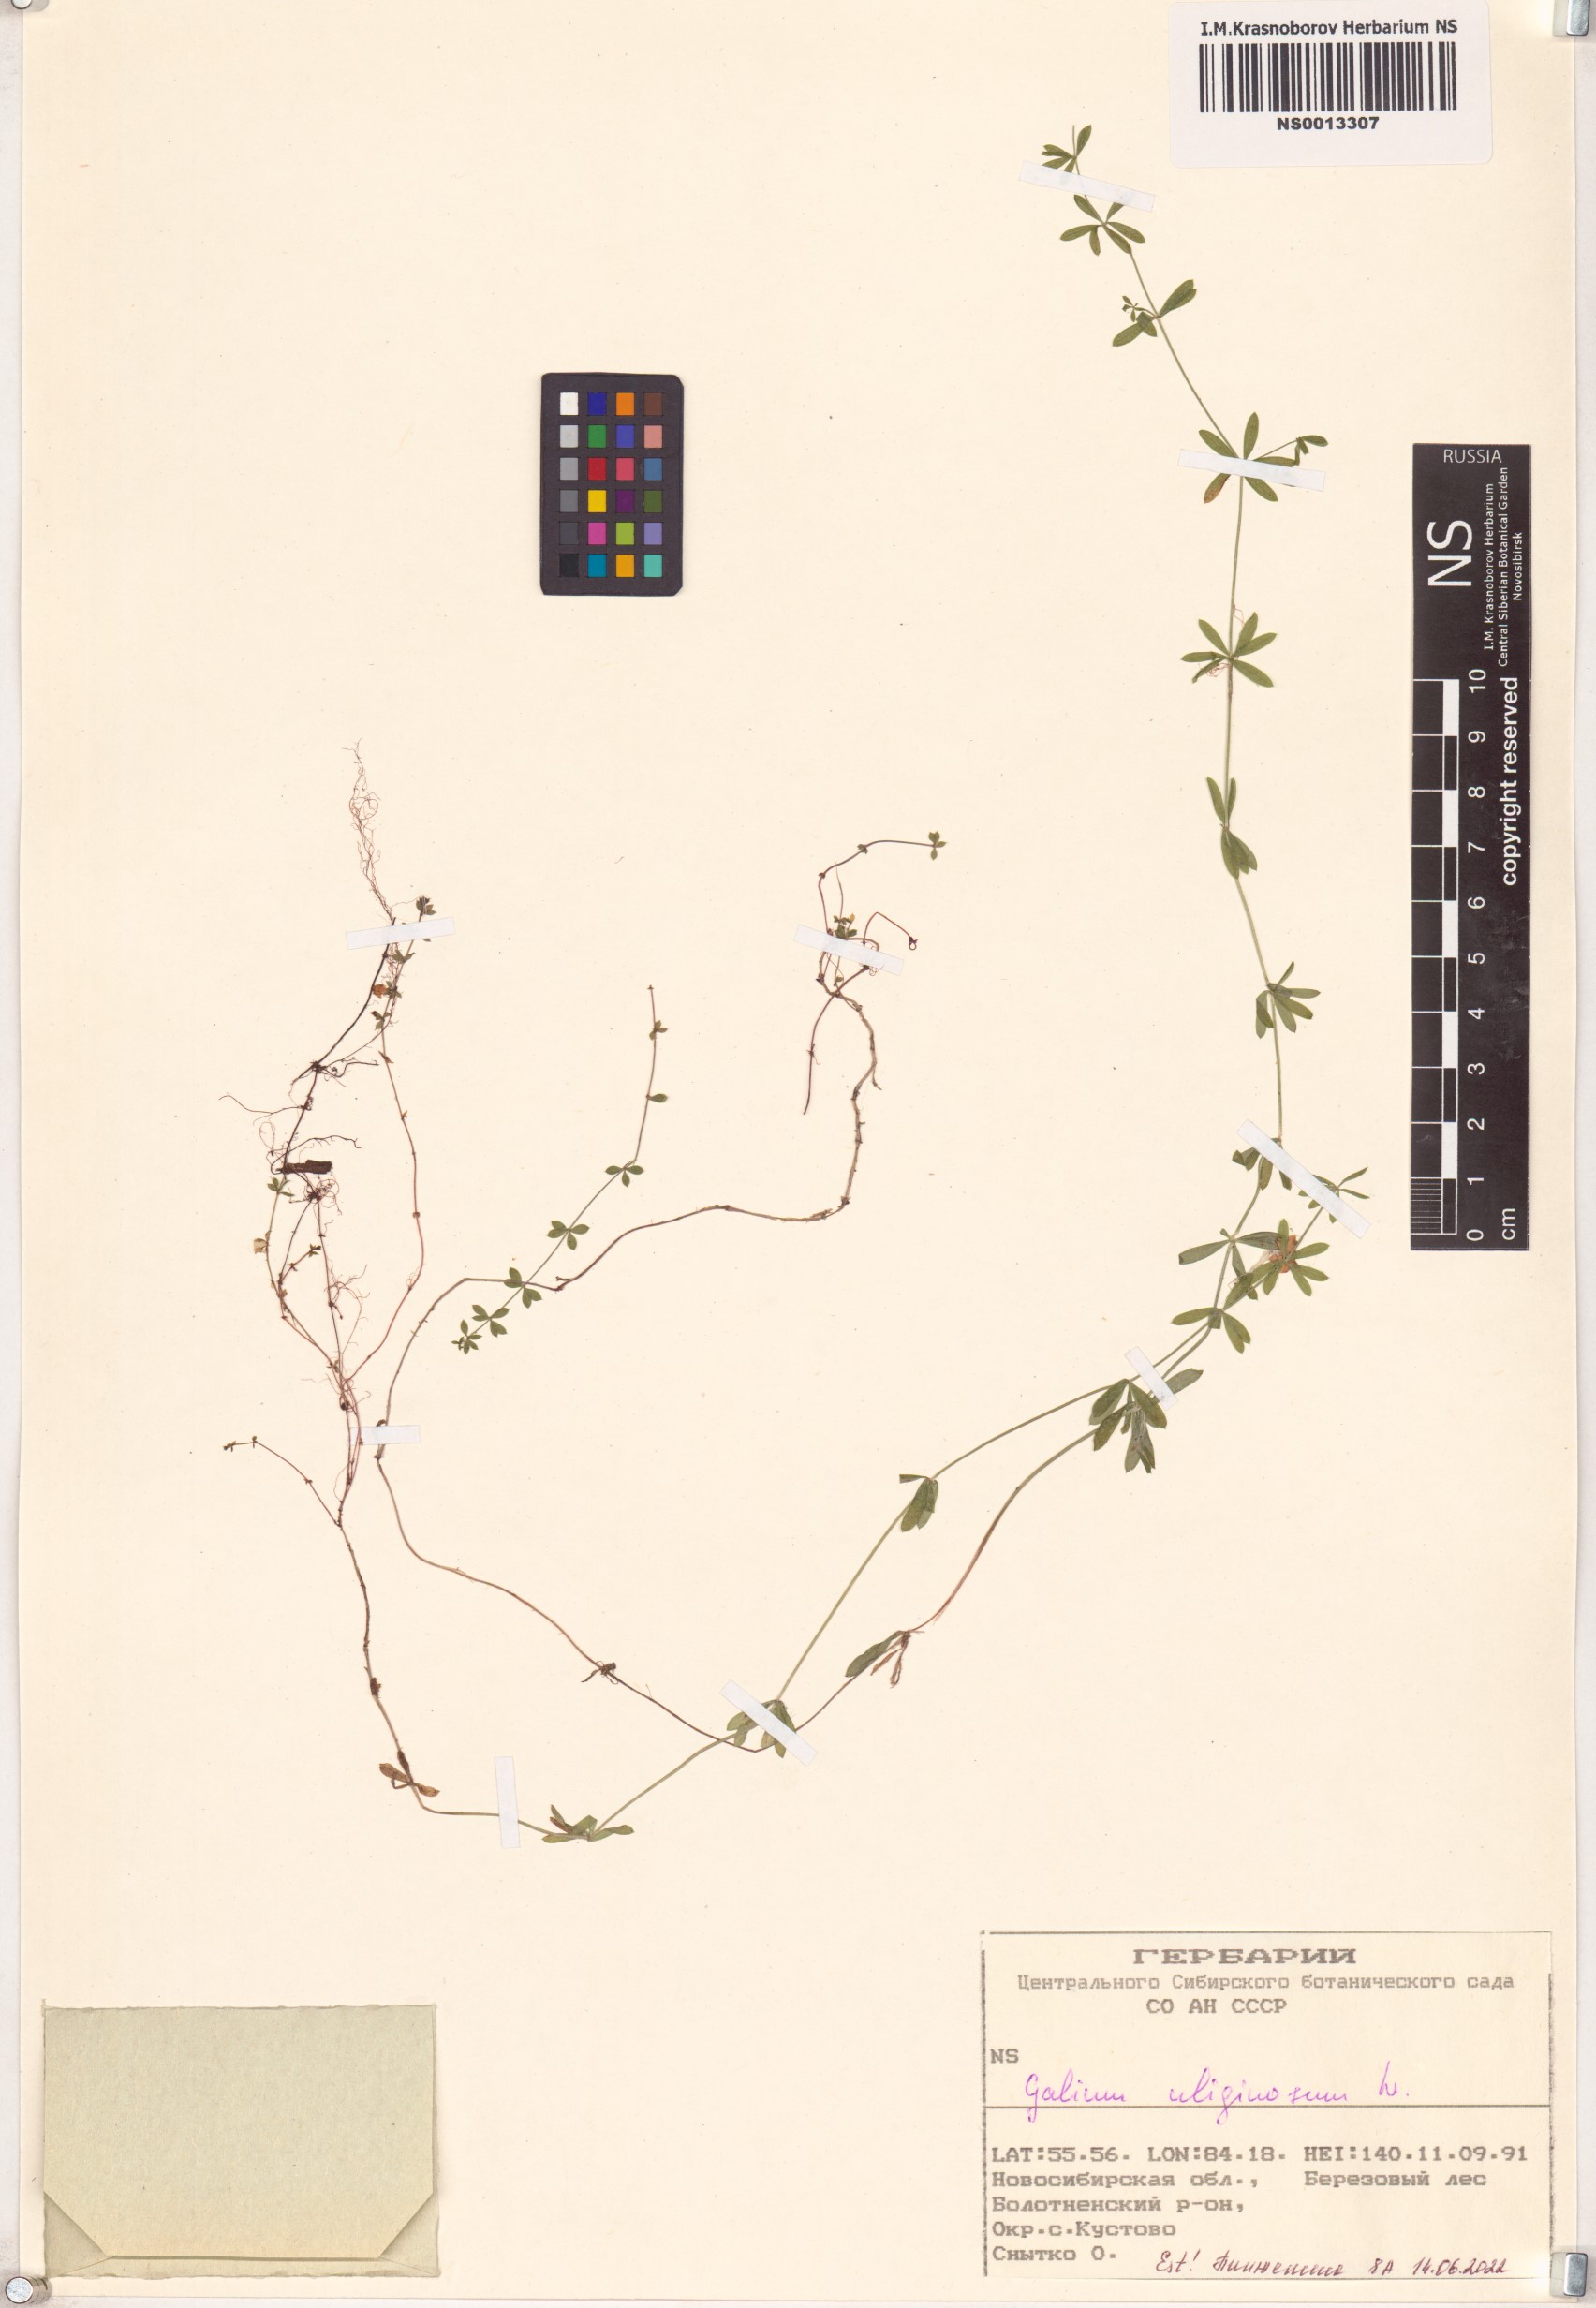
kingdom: Plantae
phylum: Tracheophyta
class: Magnoliopsida
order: Gentianales
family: Rubiaceae
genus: Galium
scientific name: Galium uliginosum
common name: Fen bedstraw
